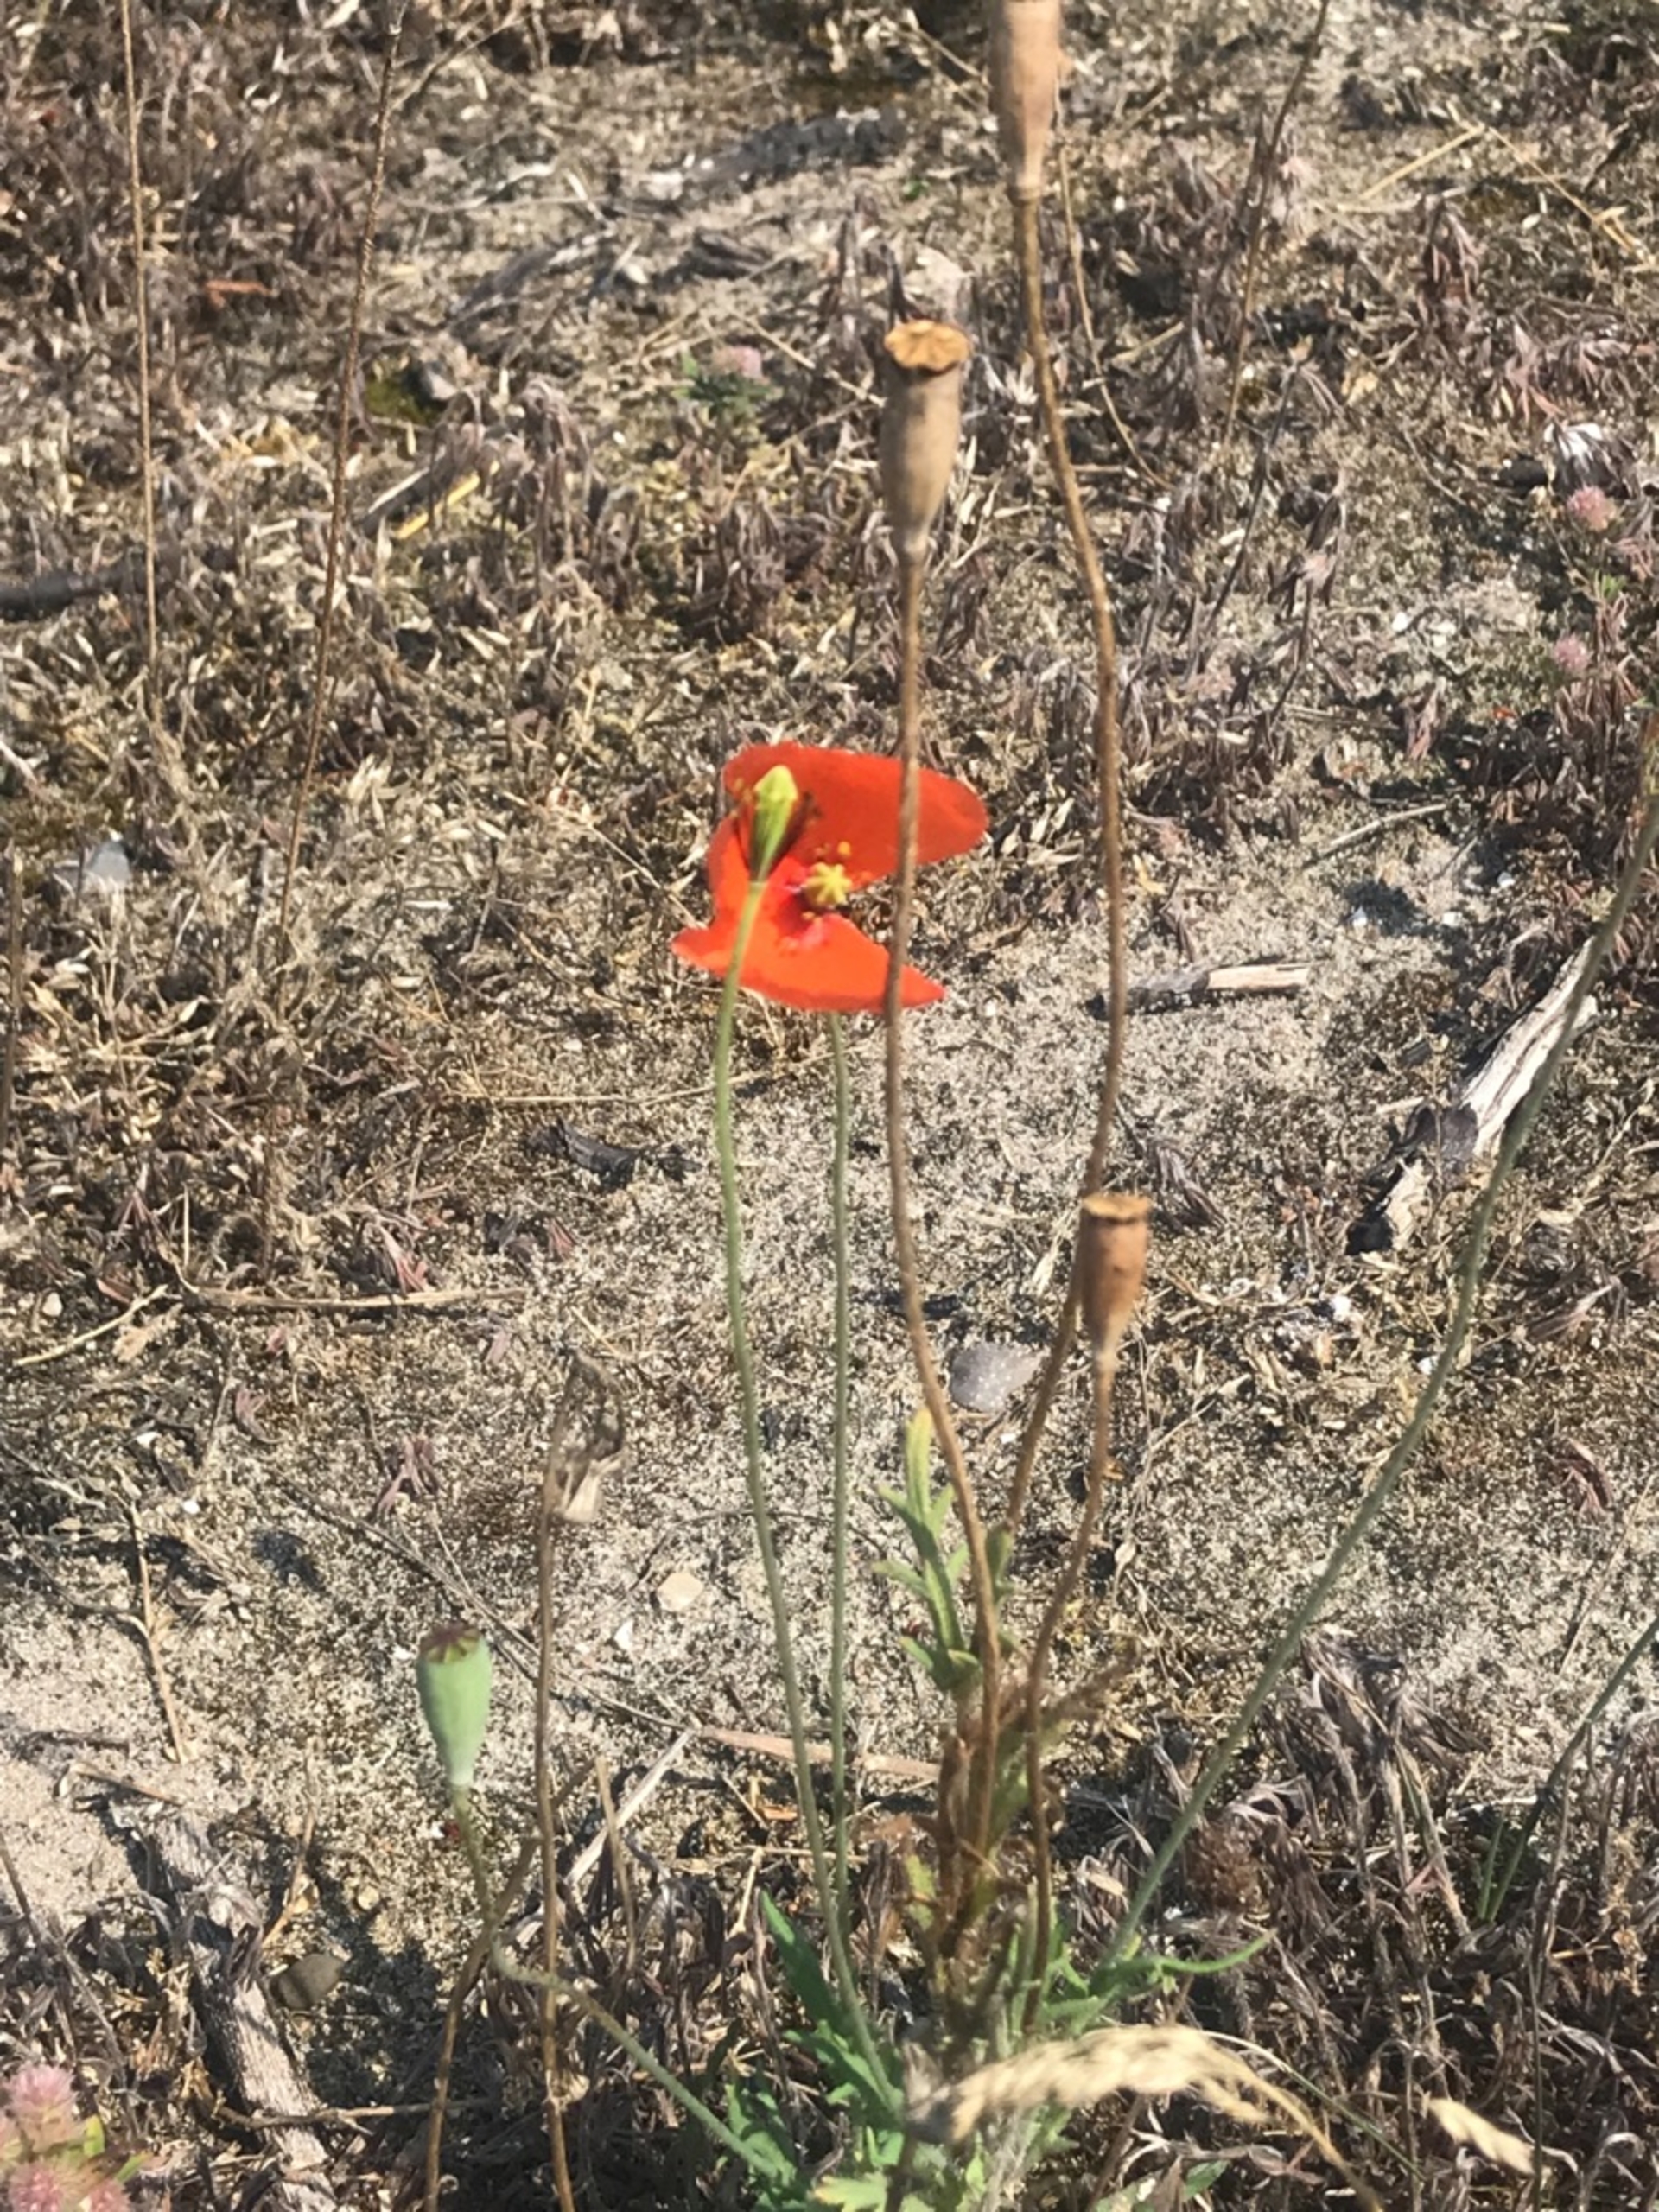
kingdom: Plantae
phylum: Tracheophyta
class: Magnoliopsida
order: Ranunculales
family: Papaveraceae
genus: Papaver
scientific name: Papaver dubium
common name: Gærde-valmue
